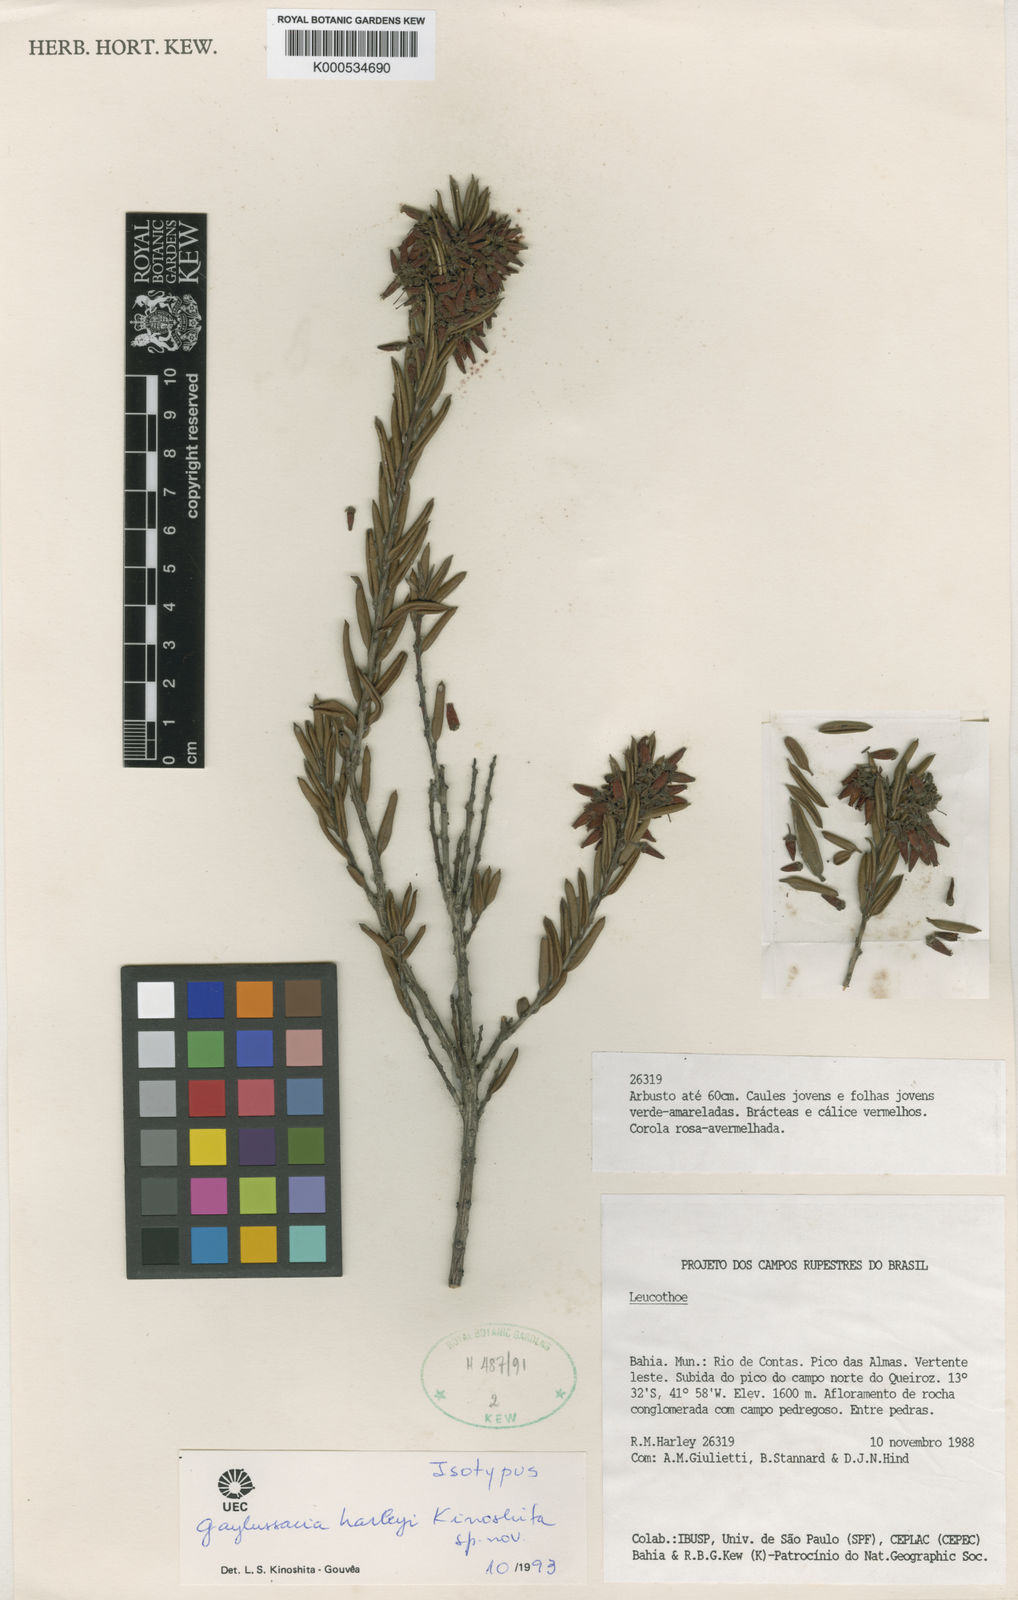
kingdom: Plantae
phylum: Tracheophyta
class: Magnoliopsida
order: Ericales
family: Ericaceae
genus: Gaylussacia
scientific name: Gaylussacia harleyi
